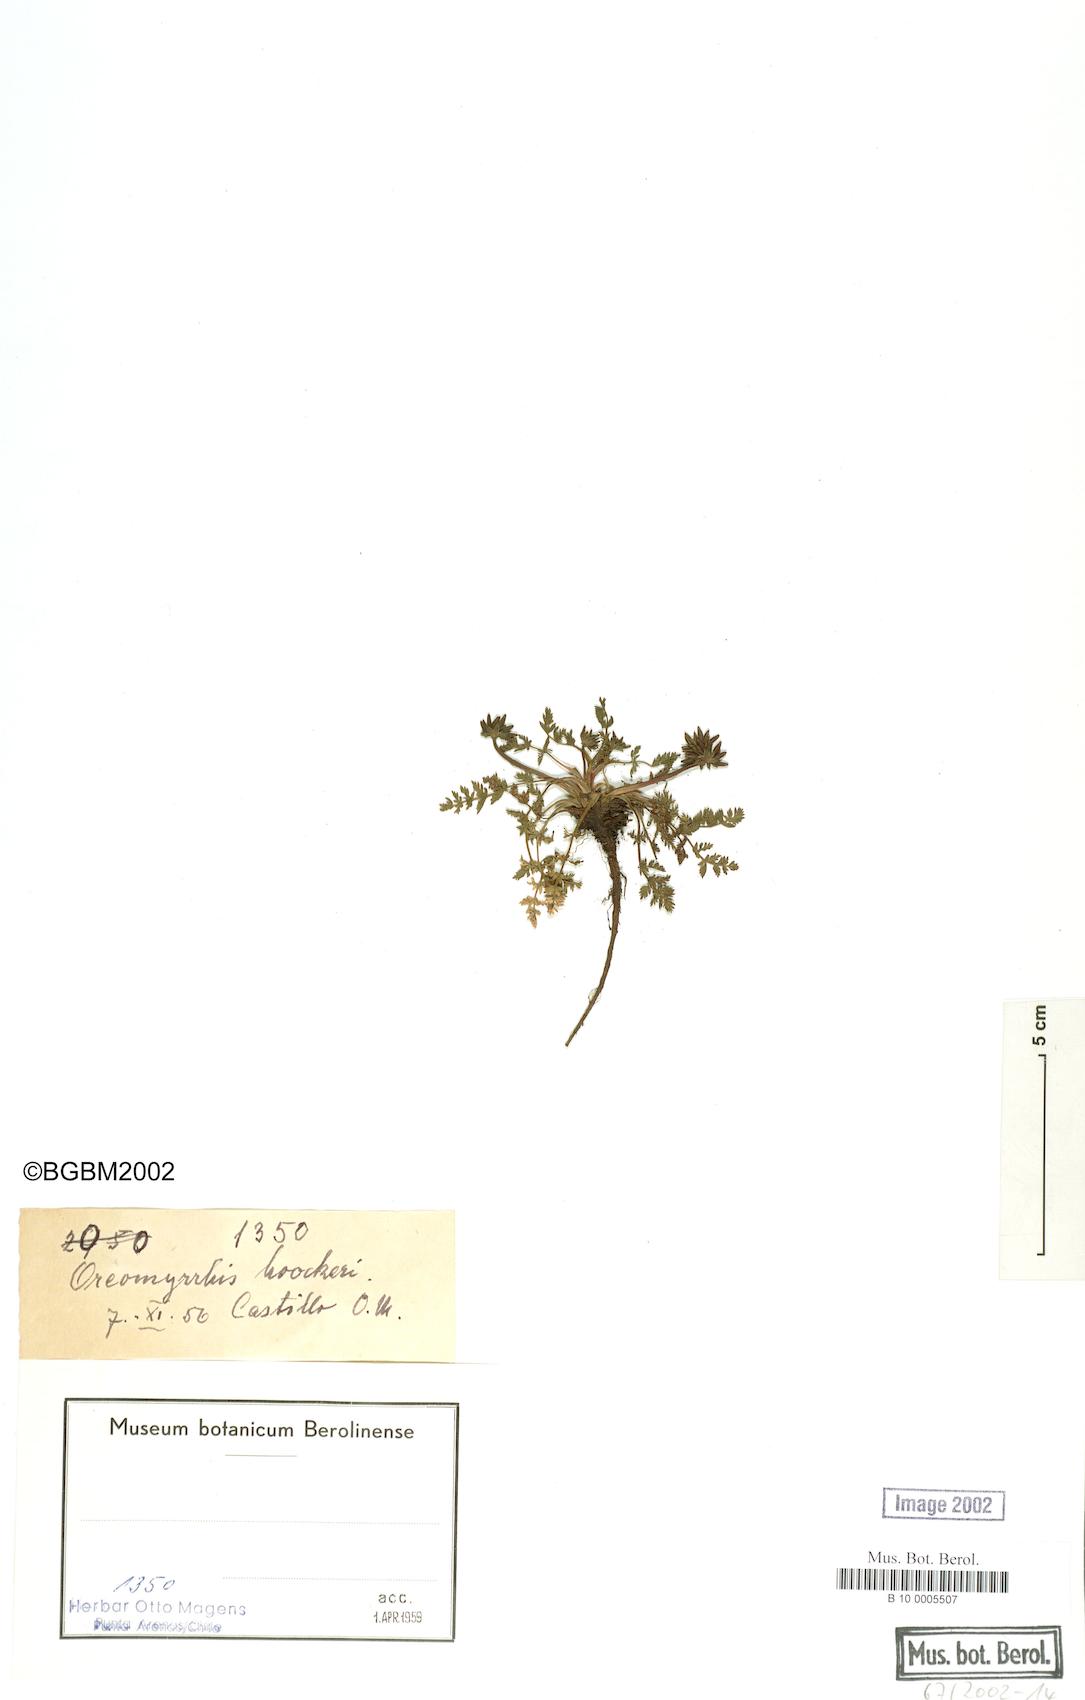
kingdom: Plantae
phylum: Tracheophyta
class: Magnoliopsida
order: Apiales
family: Apiaceae
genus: Chaerophyllum
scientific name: Chaerophyllum daucoides
